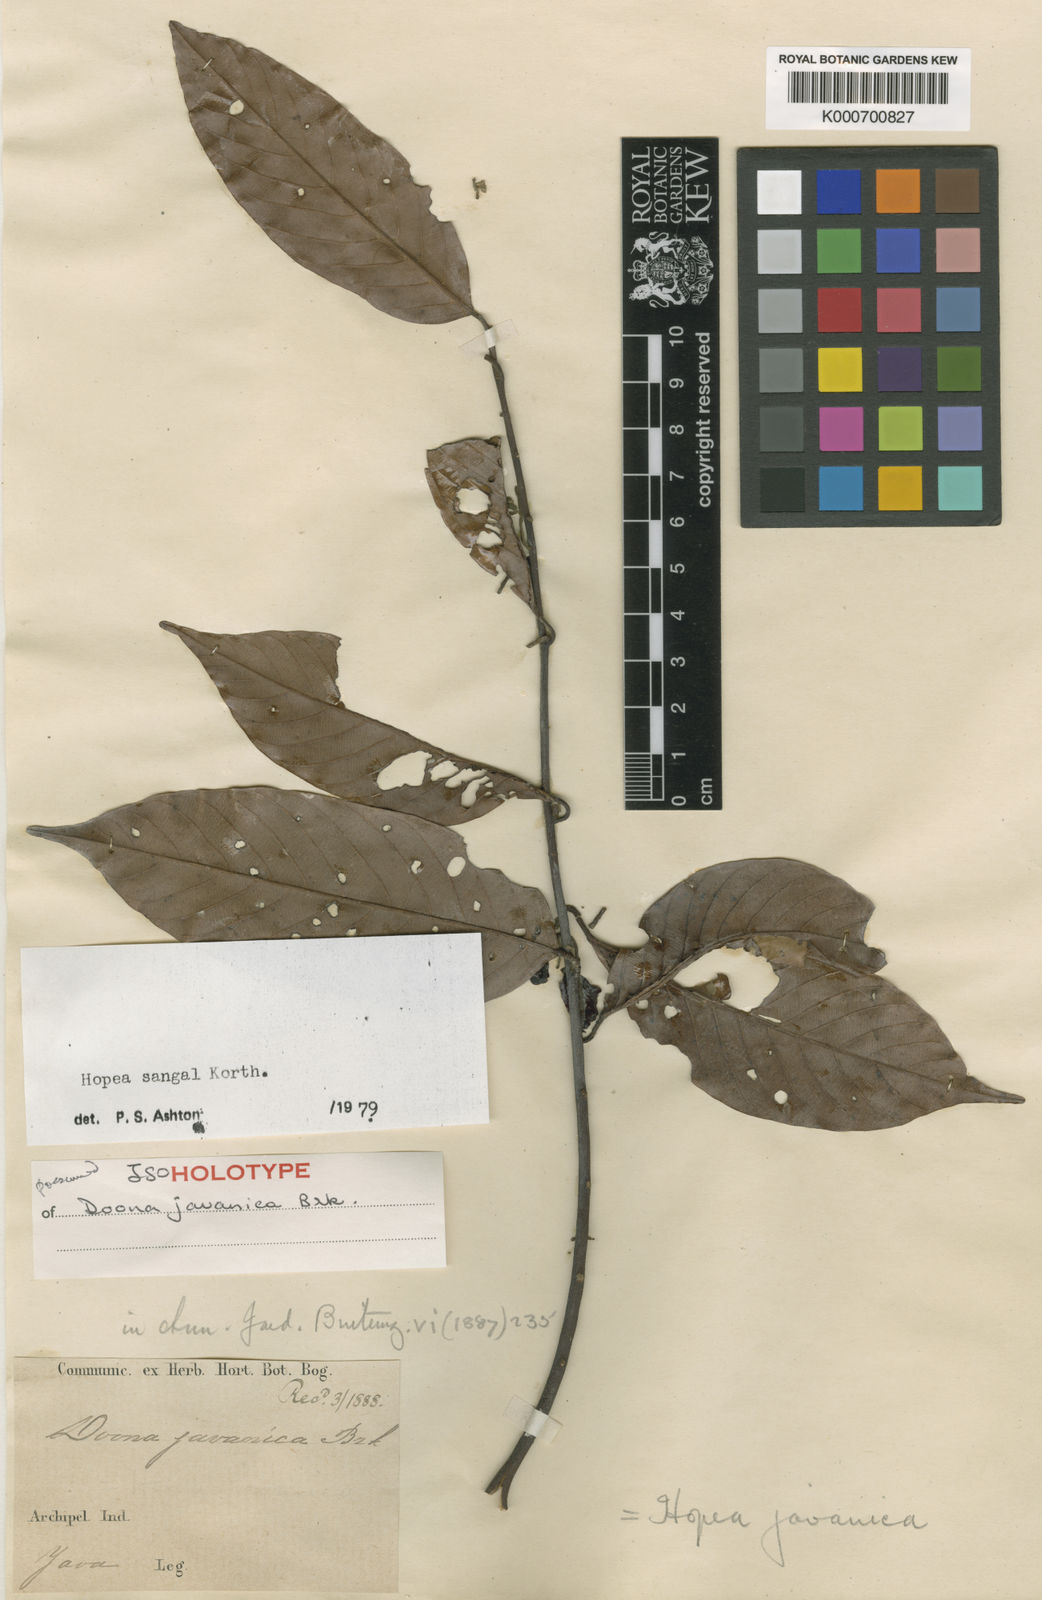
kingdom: Plantae
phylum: Tracheophyta
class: Magnoliopsida
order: Malvales
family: Dipterocarpaceae
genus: Hopea
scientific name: Hopea sangal
